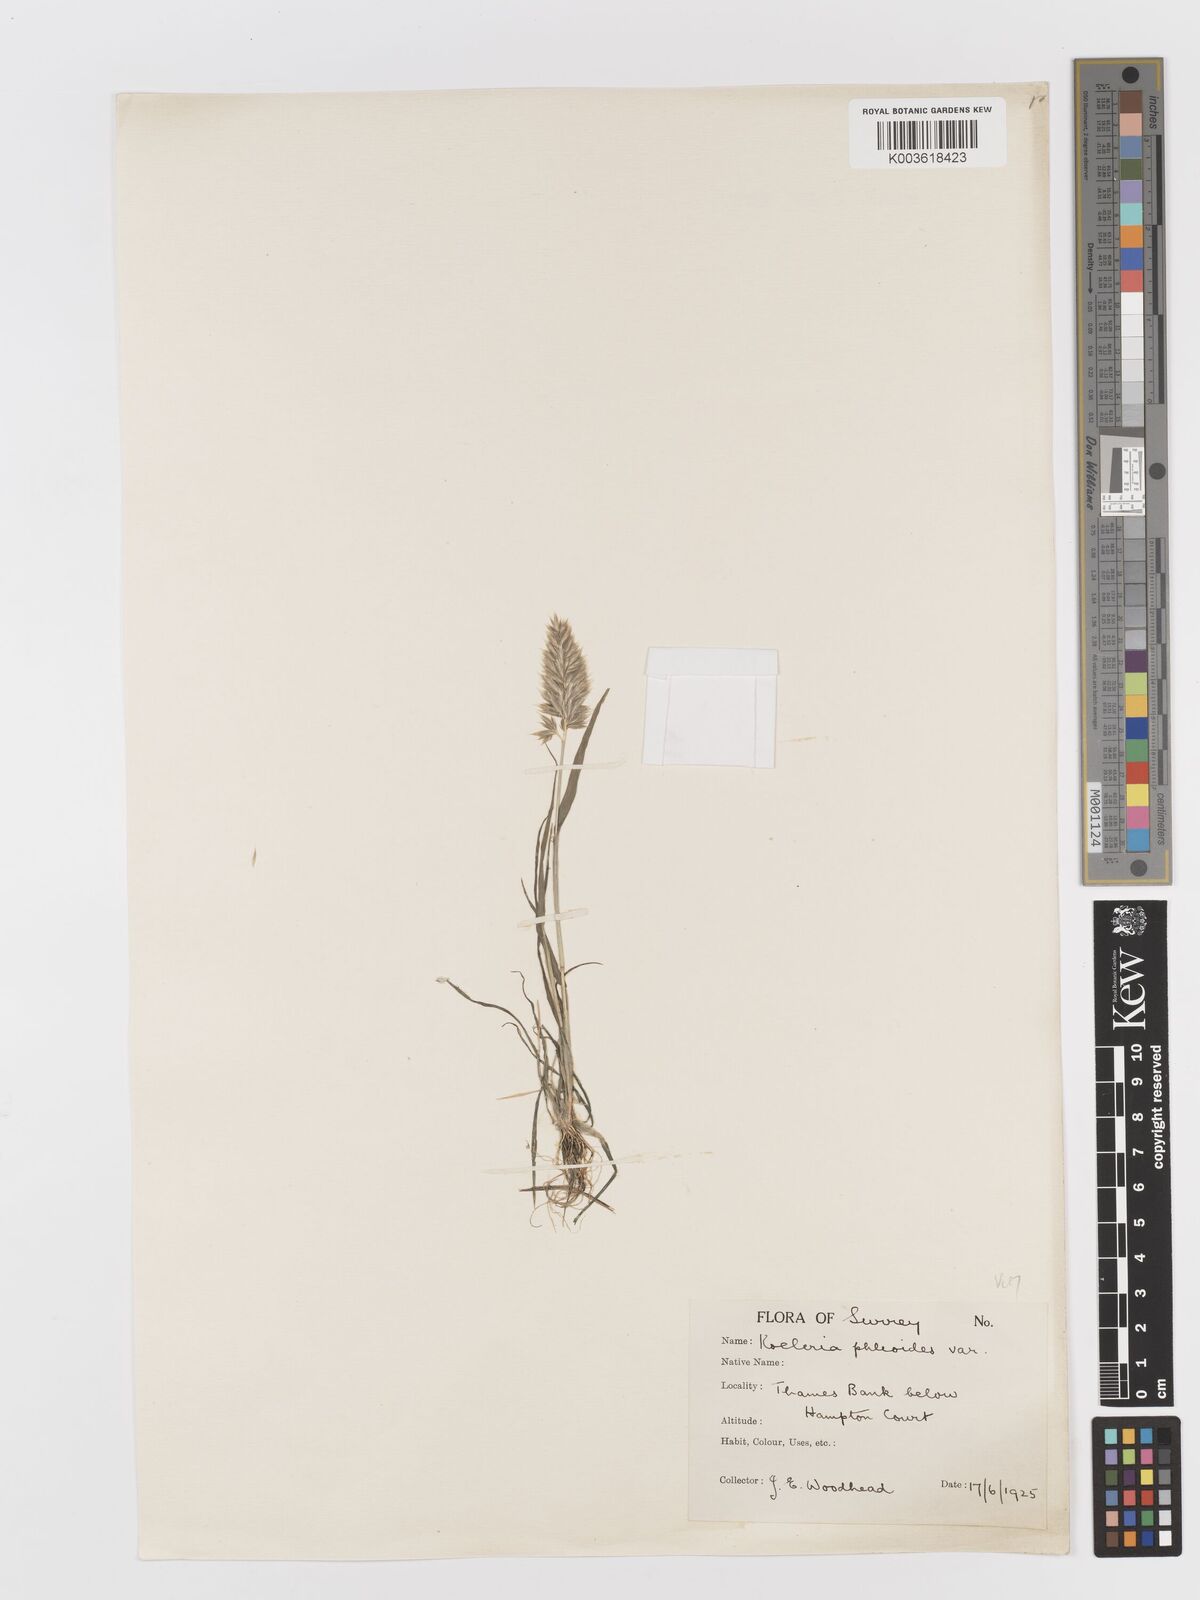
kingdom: Plantae
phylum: Tracheophyta
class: Liliopsida
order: Poales
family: Poaceae
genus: Rostraria
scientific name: Rostraria cristata
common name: Mediterranean hair-grass
